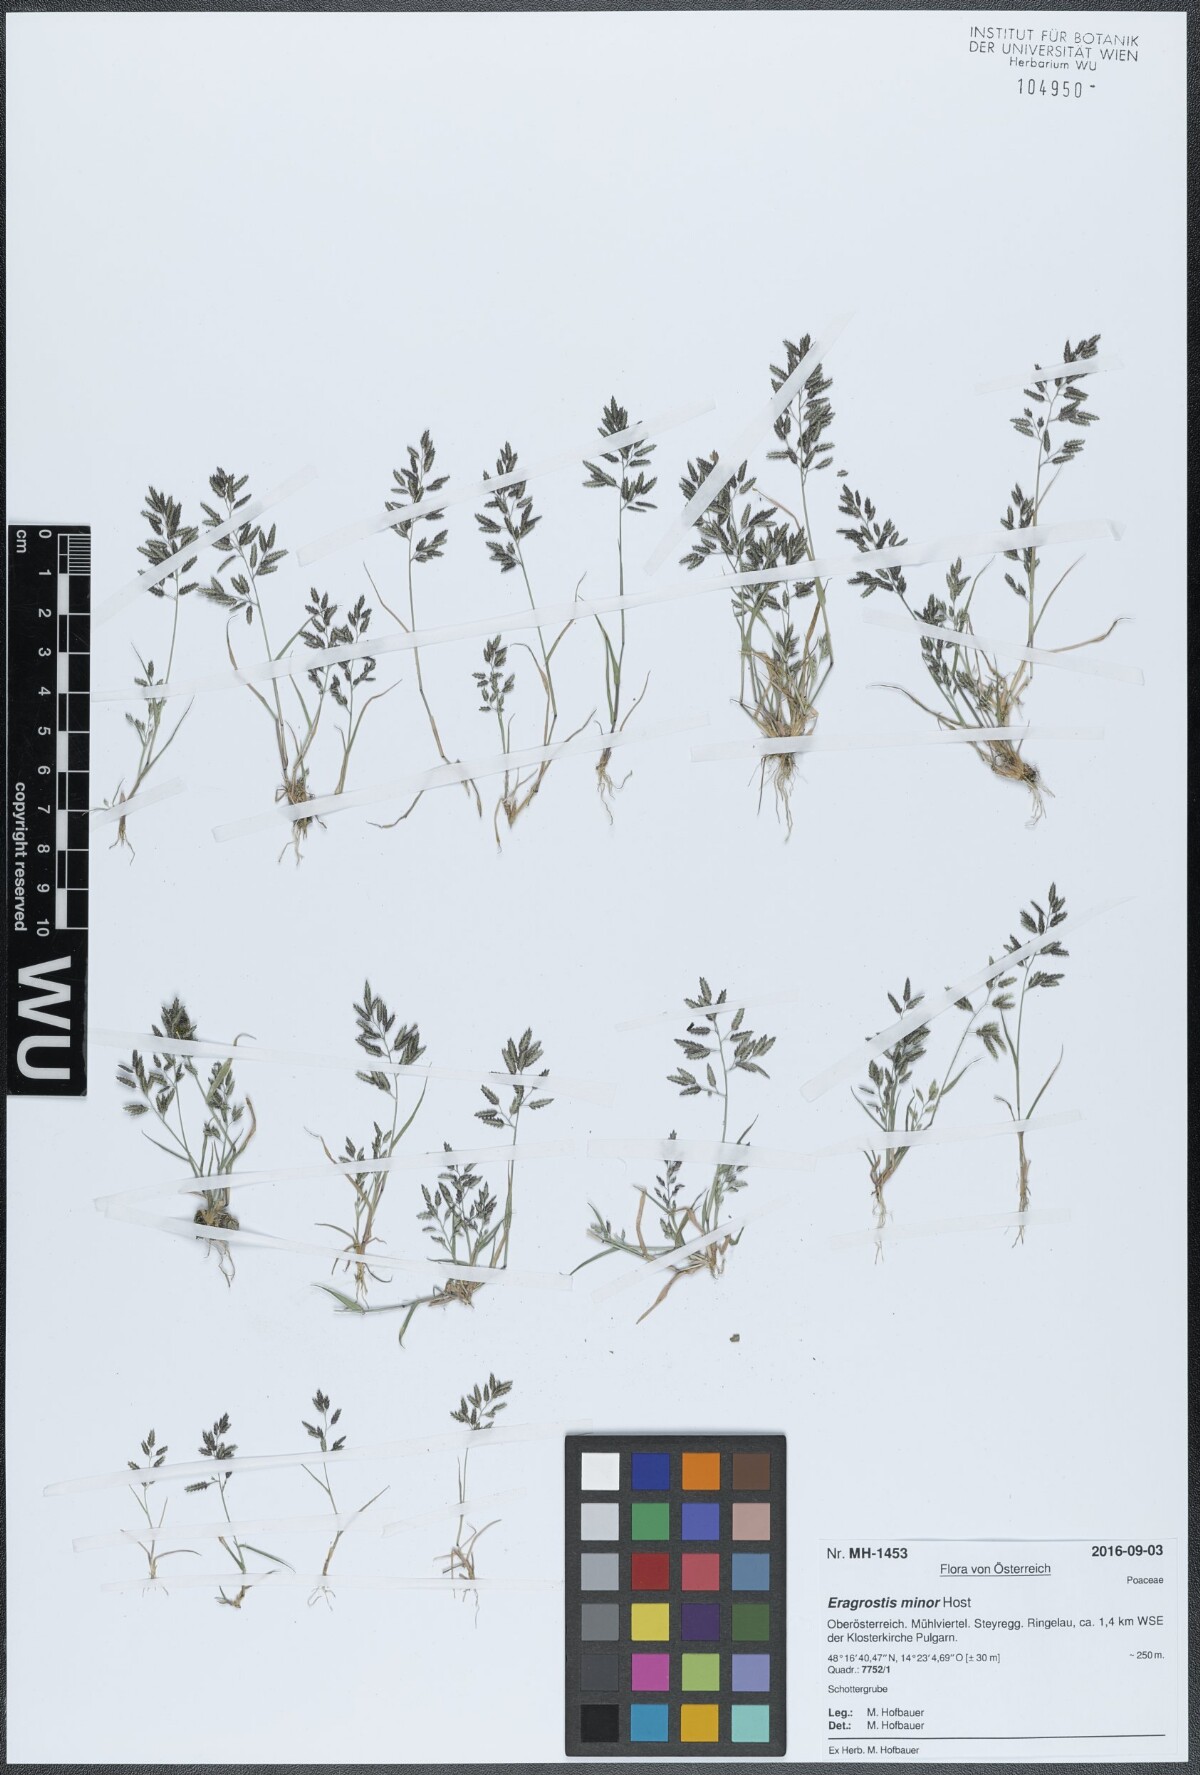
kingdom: Plantae
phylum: Tracheophyta
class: Liliopsida
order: Poales
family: Poaceae
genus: Eragrostis
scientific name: Eragrostis minor
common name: Small love-grass
